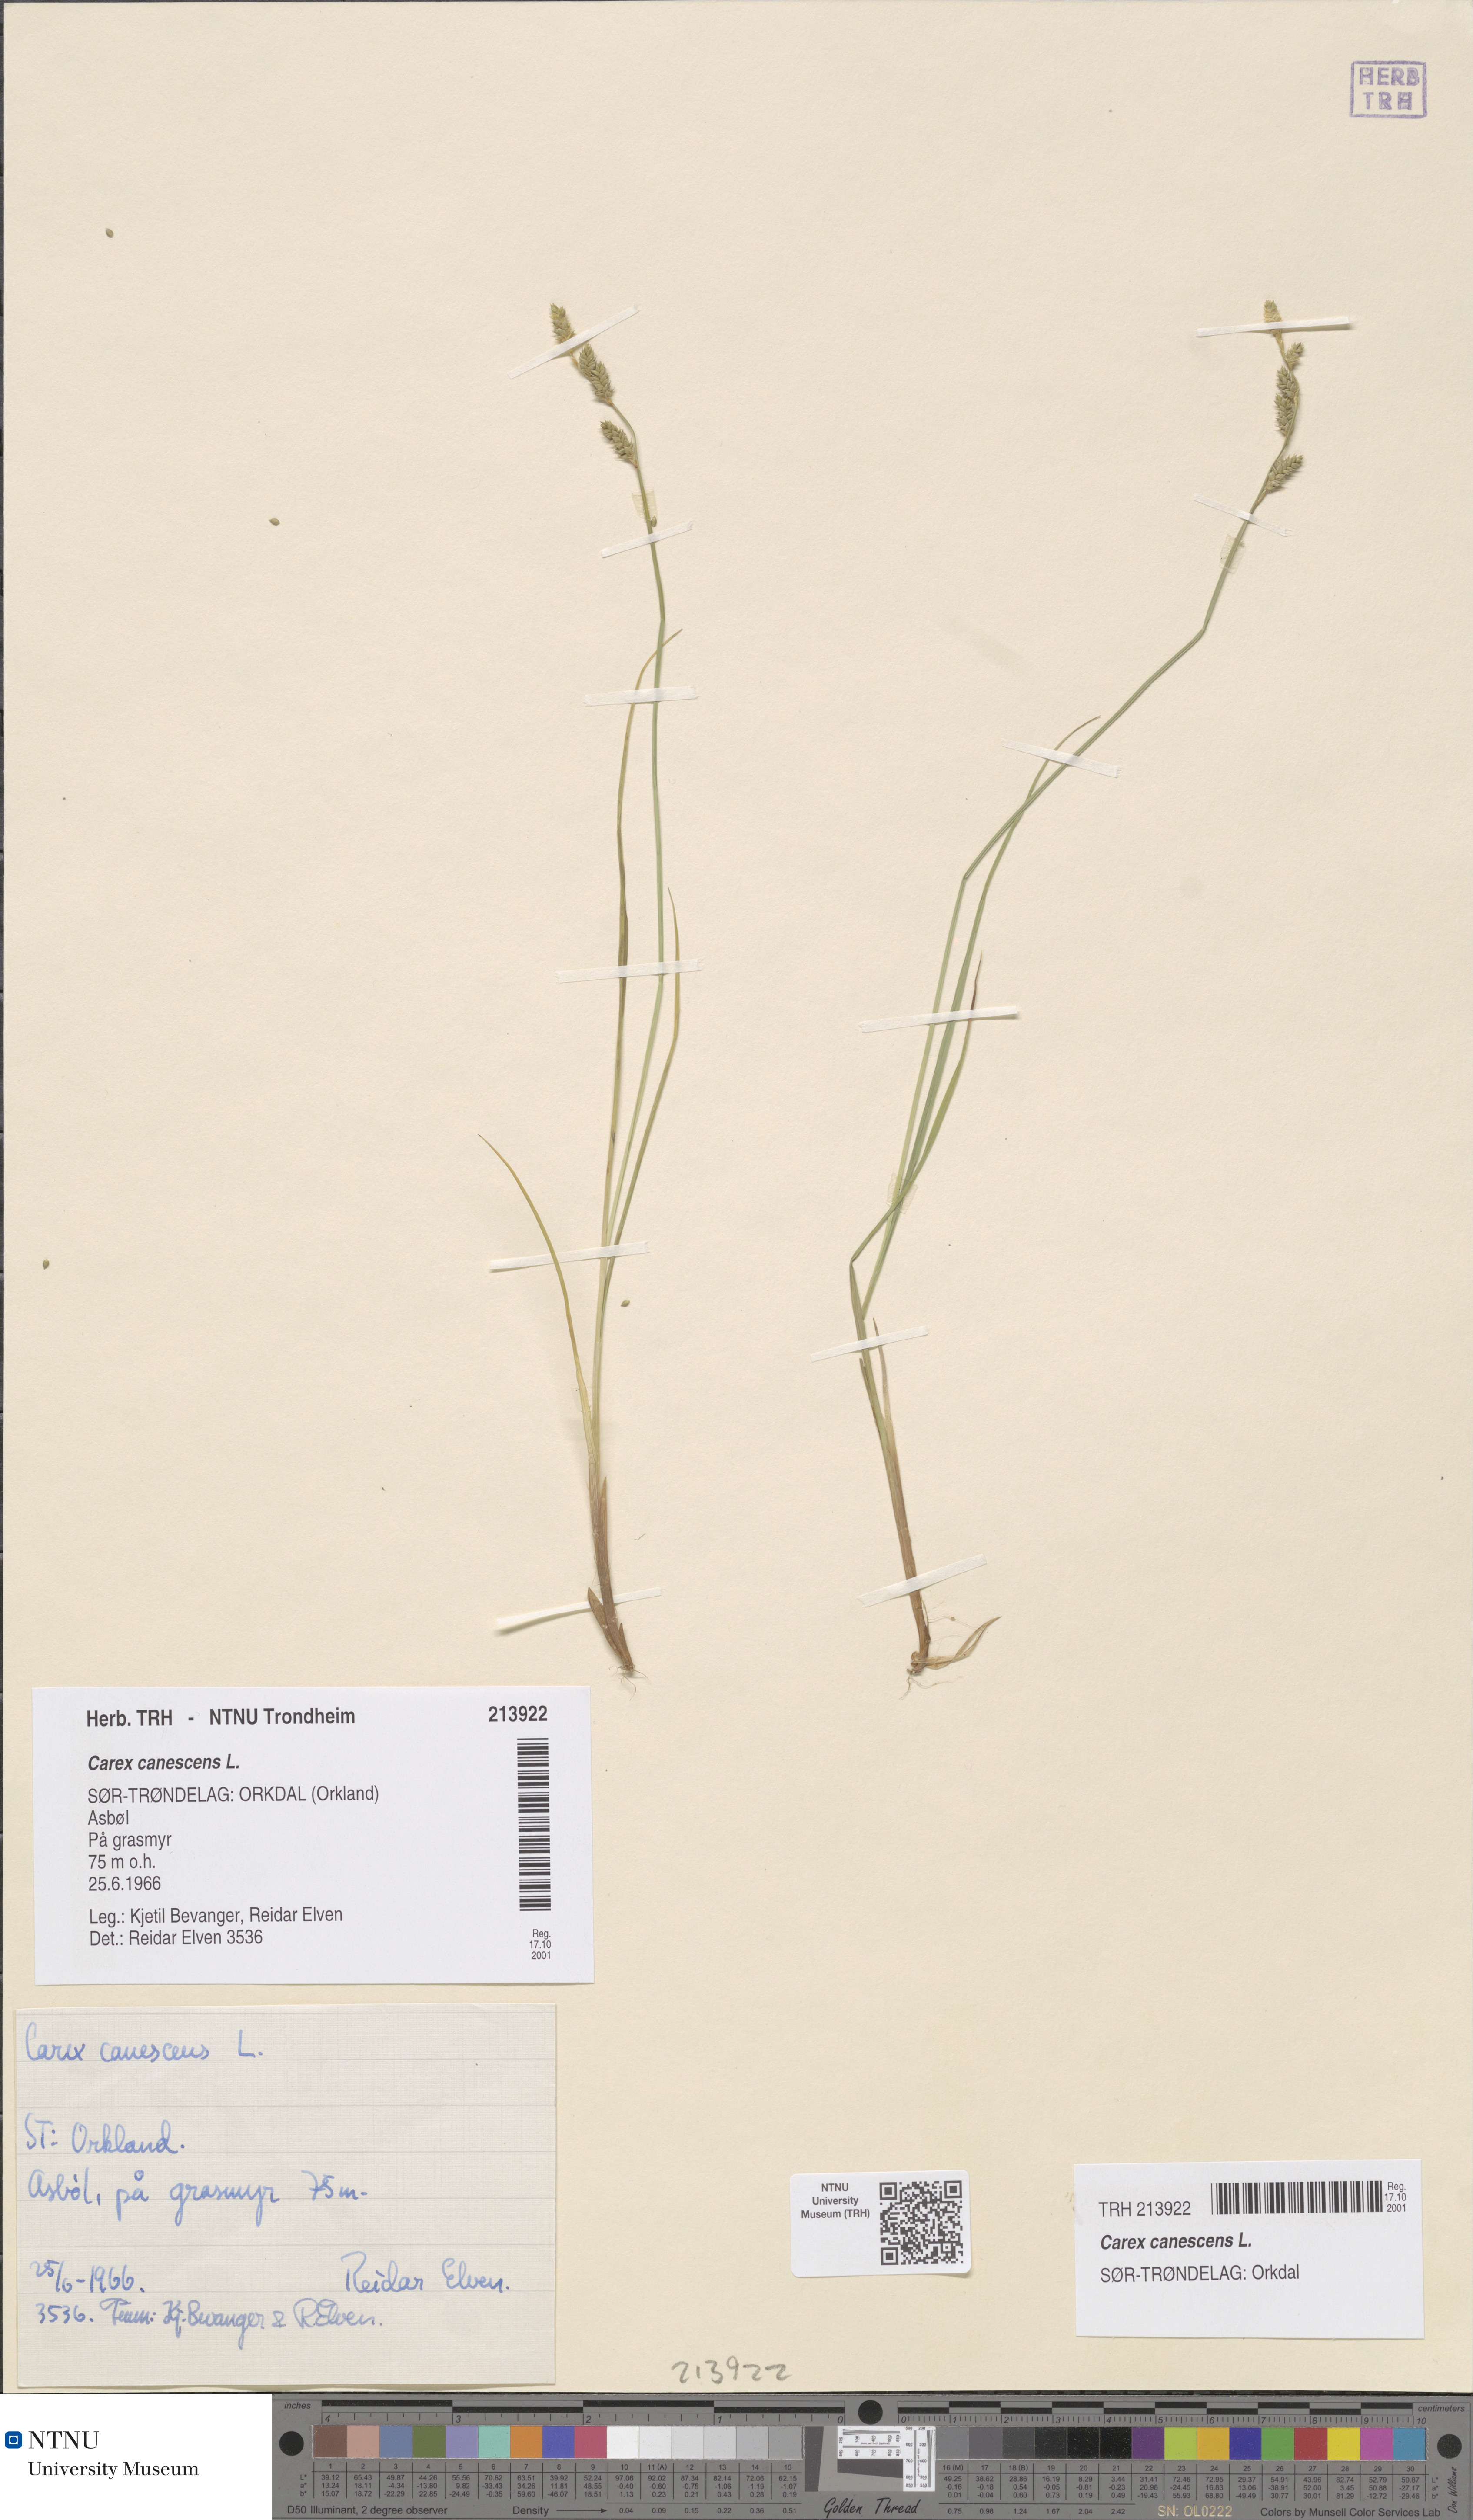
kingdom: Plantae
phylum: Tracheophyta
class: Liliopsida
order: Poales
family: Cyperaceae
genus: Carex
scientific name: Carex canescens
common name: White sedge
